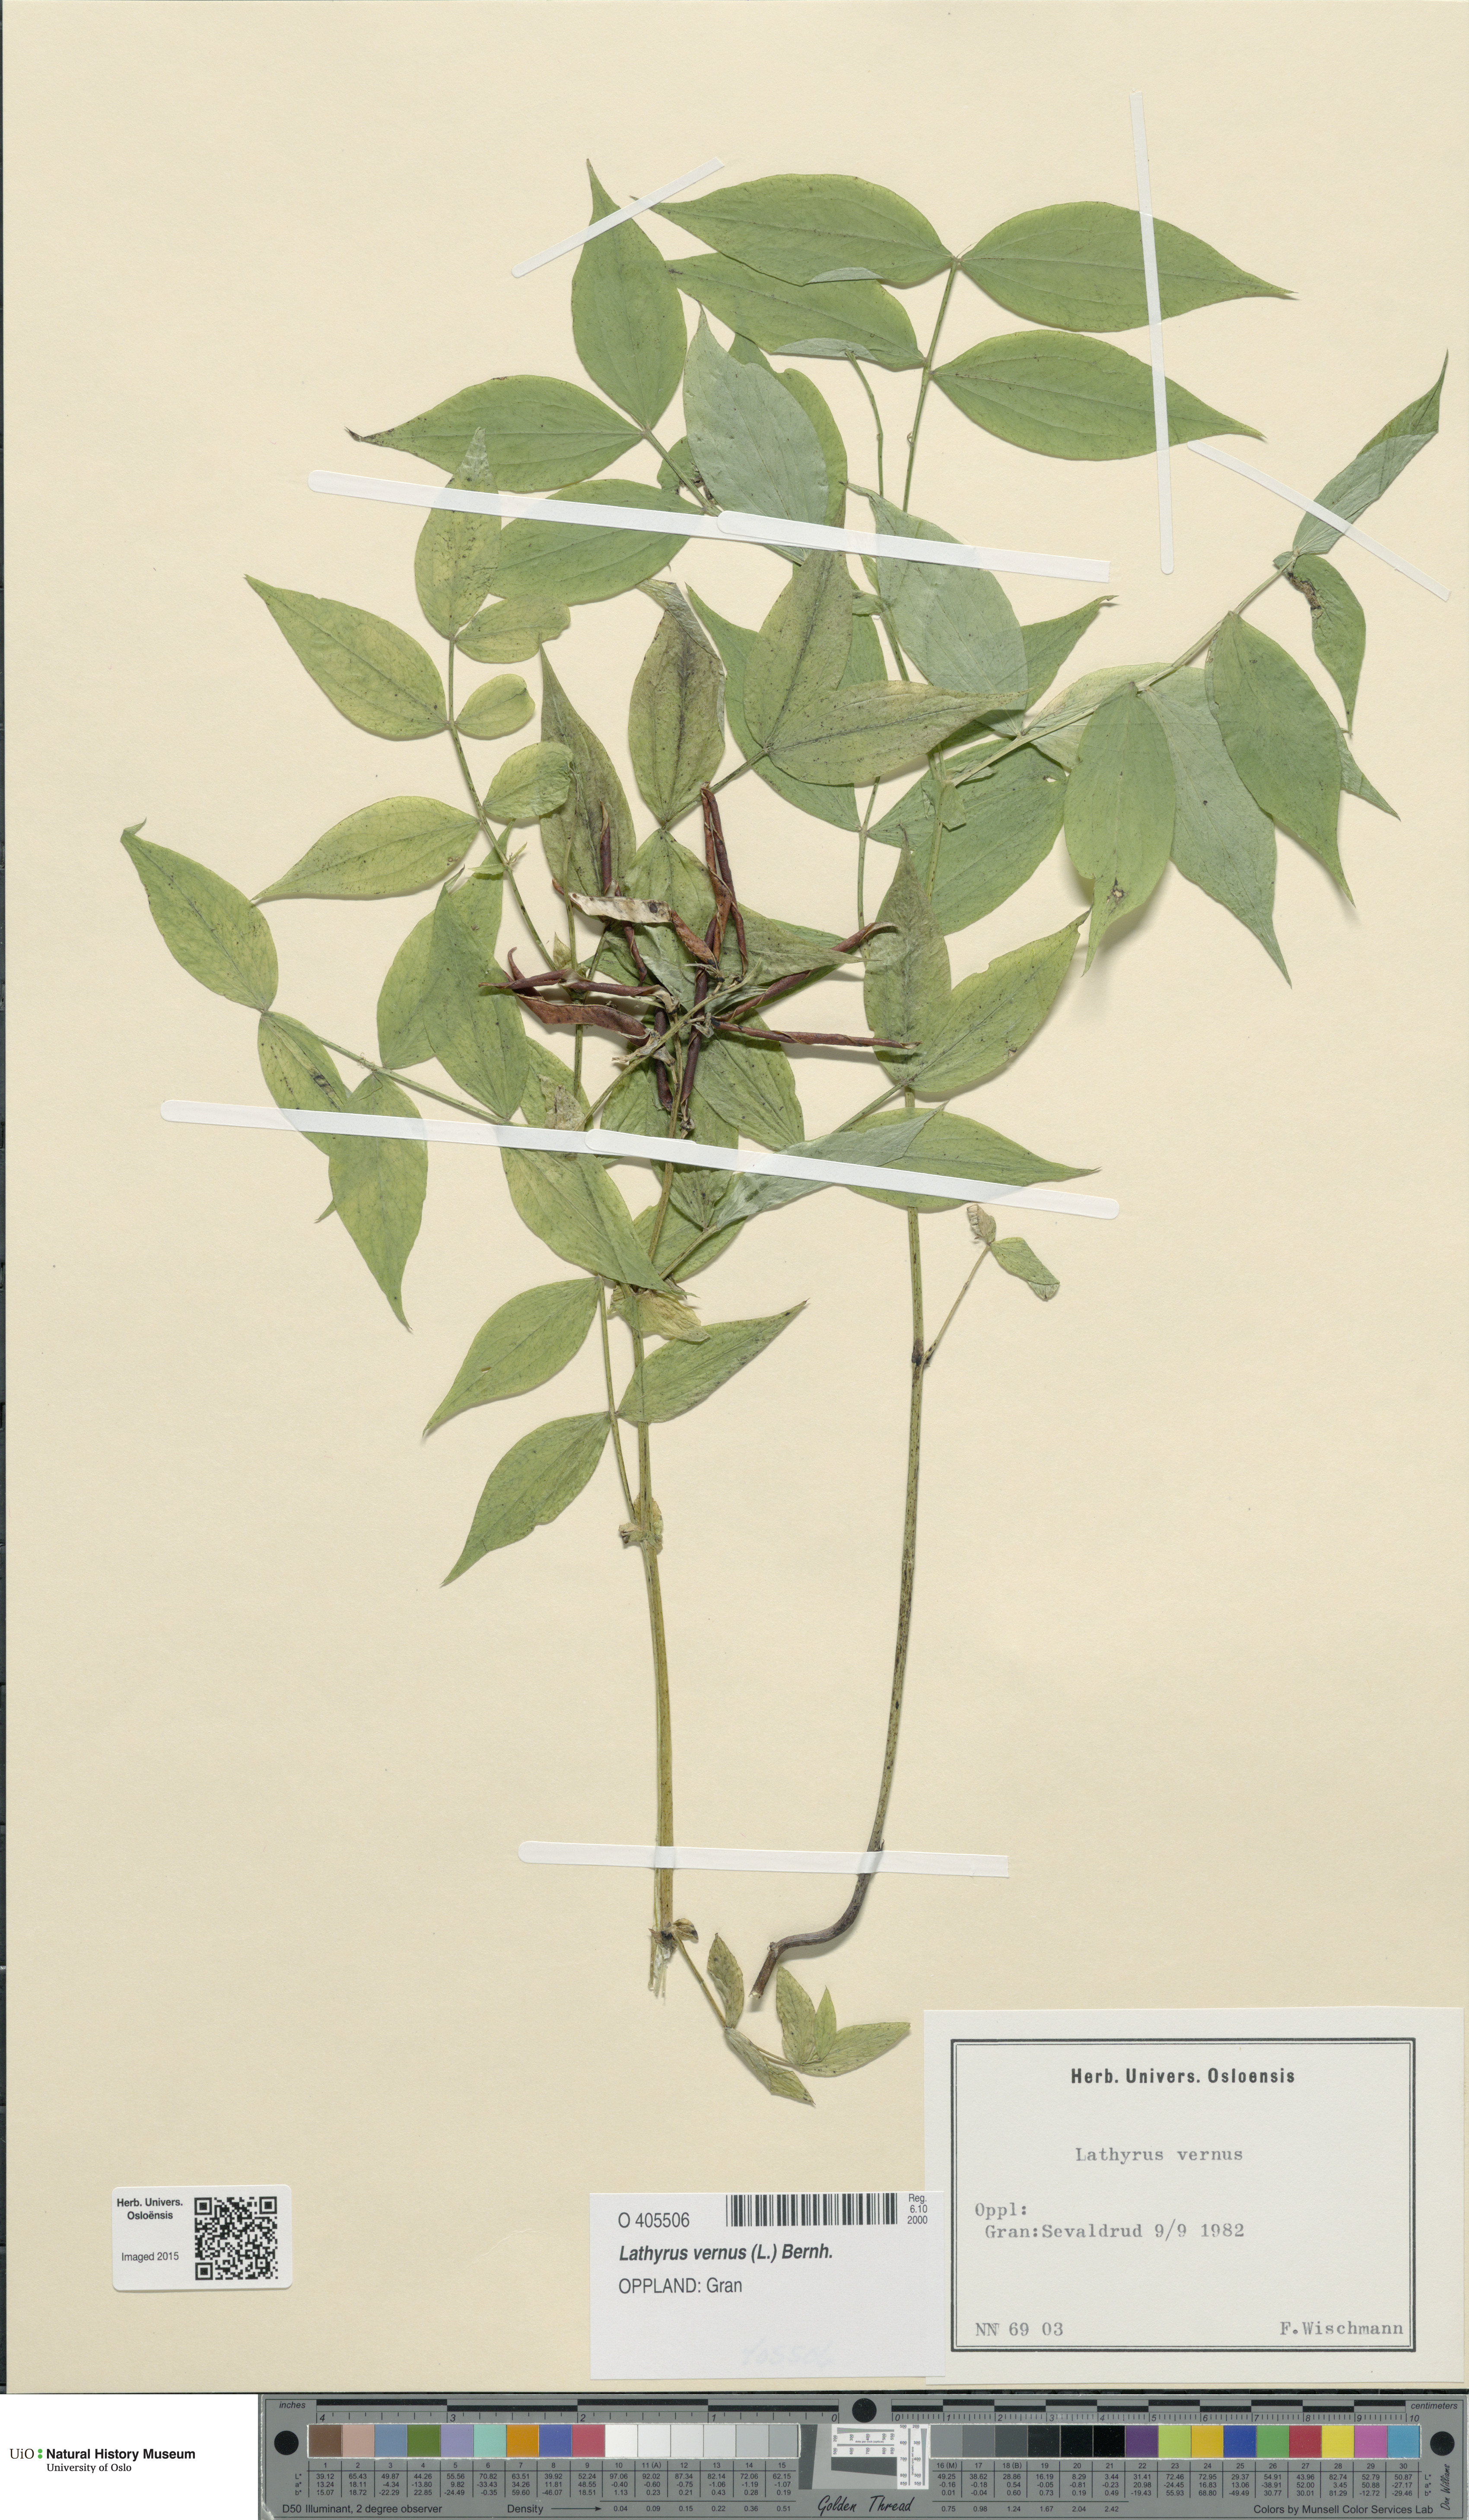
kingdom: Plantae
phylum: Tracheophyta
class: Magnoliopsida
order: Fabales
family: Fabaceae
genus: Lathyrus
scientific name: Lathyrus vernus
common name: Spring pea
